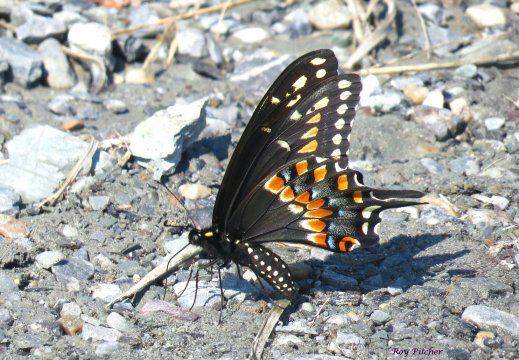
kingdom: Animalia
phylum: Arthropoda
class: Insecta
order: Lepidoptera
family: Papilionidae
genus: Papilio
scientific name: Papilio polyxenes
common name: Black Swallowtail
